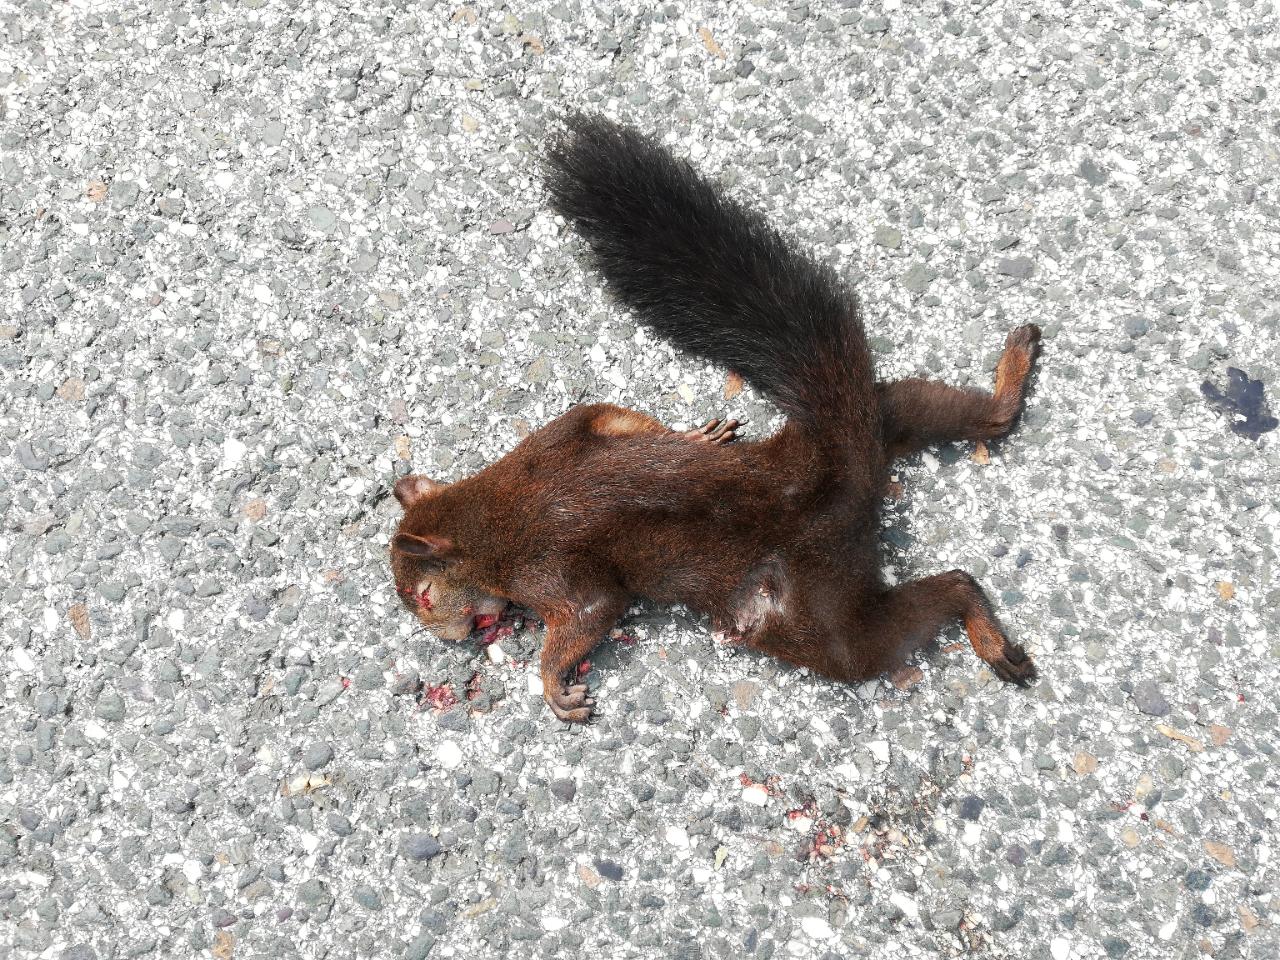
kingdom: Animalia
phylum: Chordata
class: Mammalia
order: Rodentia
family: Sciuridae
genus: Sciurus
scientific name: Sciurus vulgaris
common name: Eurasian red squirrel
